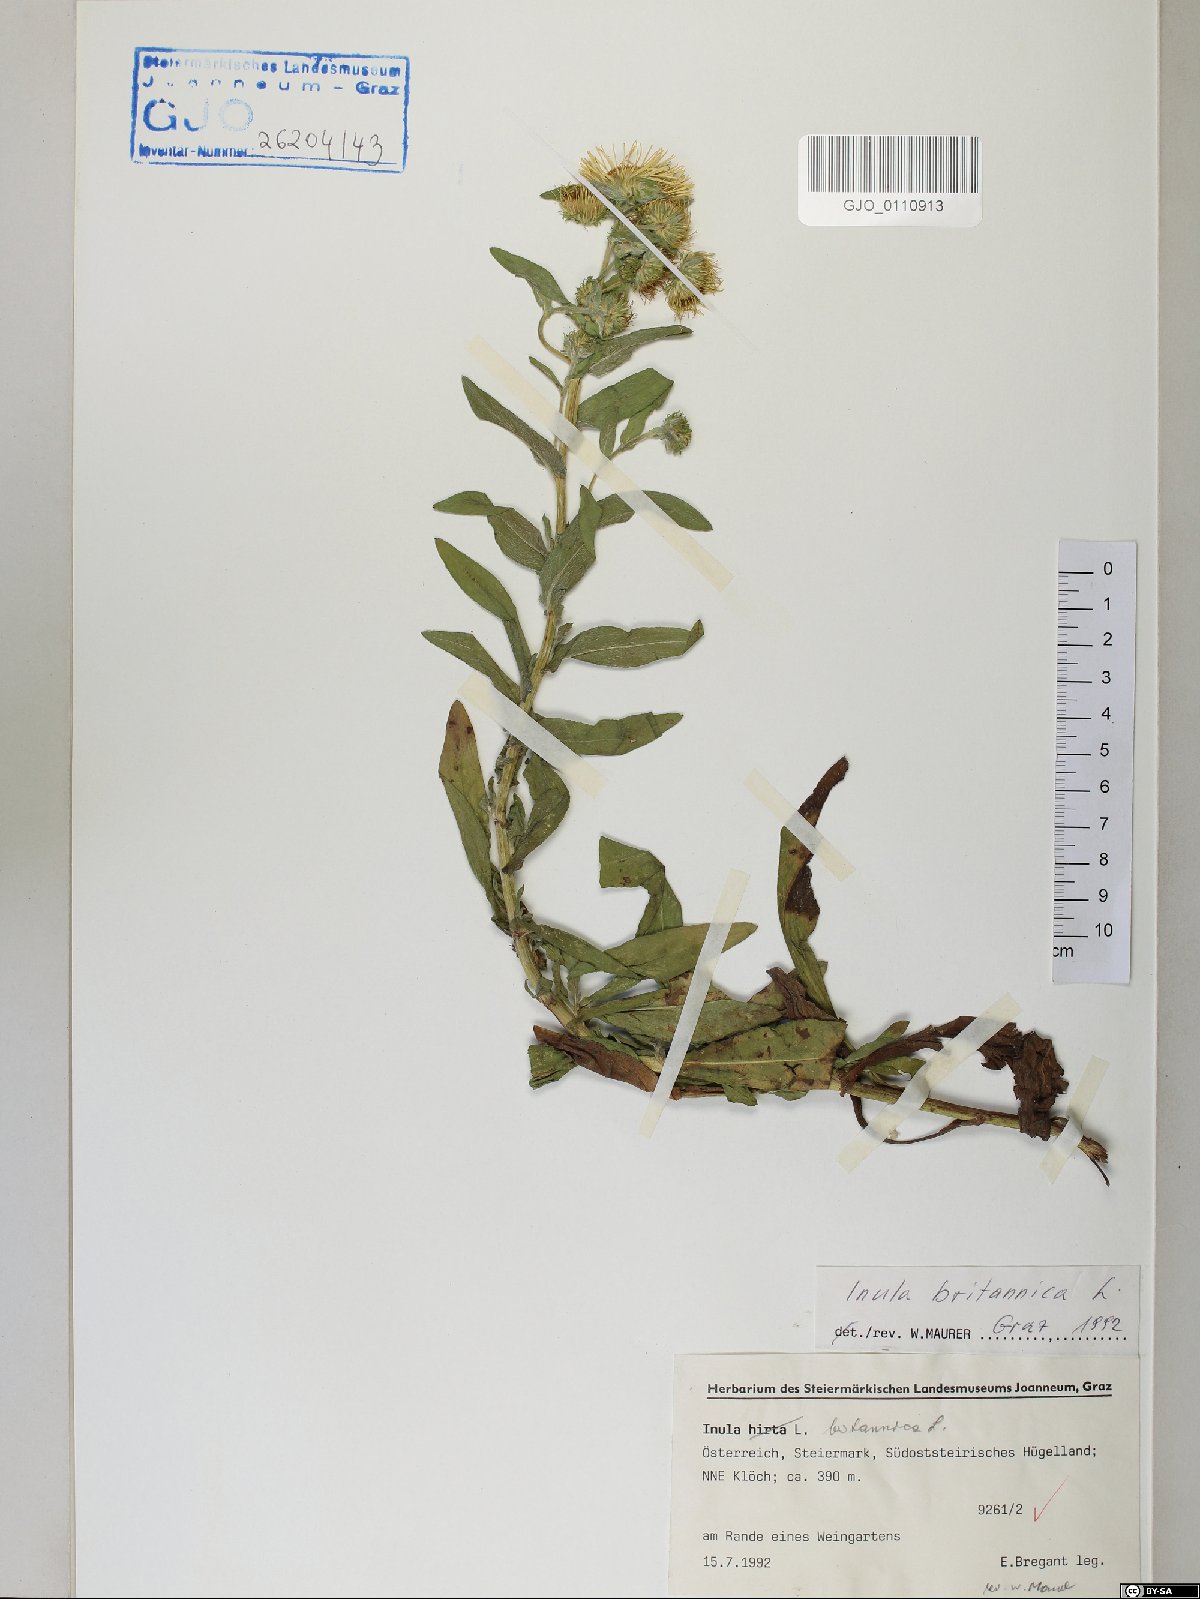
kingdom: Plantae
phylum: Tracheophyta
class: Magnoliopsida
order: Asterales
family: Asteraceae
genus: Pentanema
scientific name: Pentanema britannicum
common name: British elecampane
